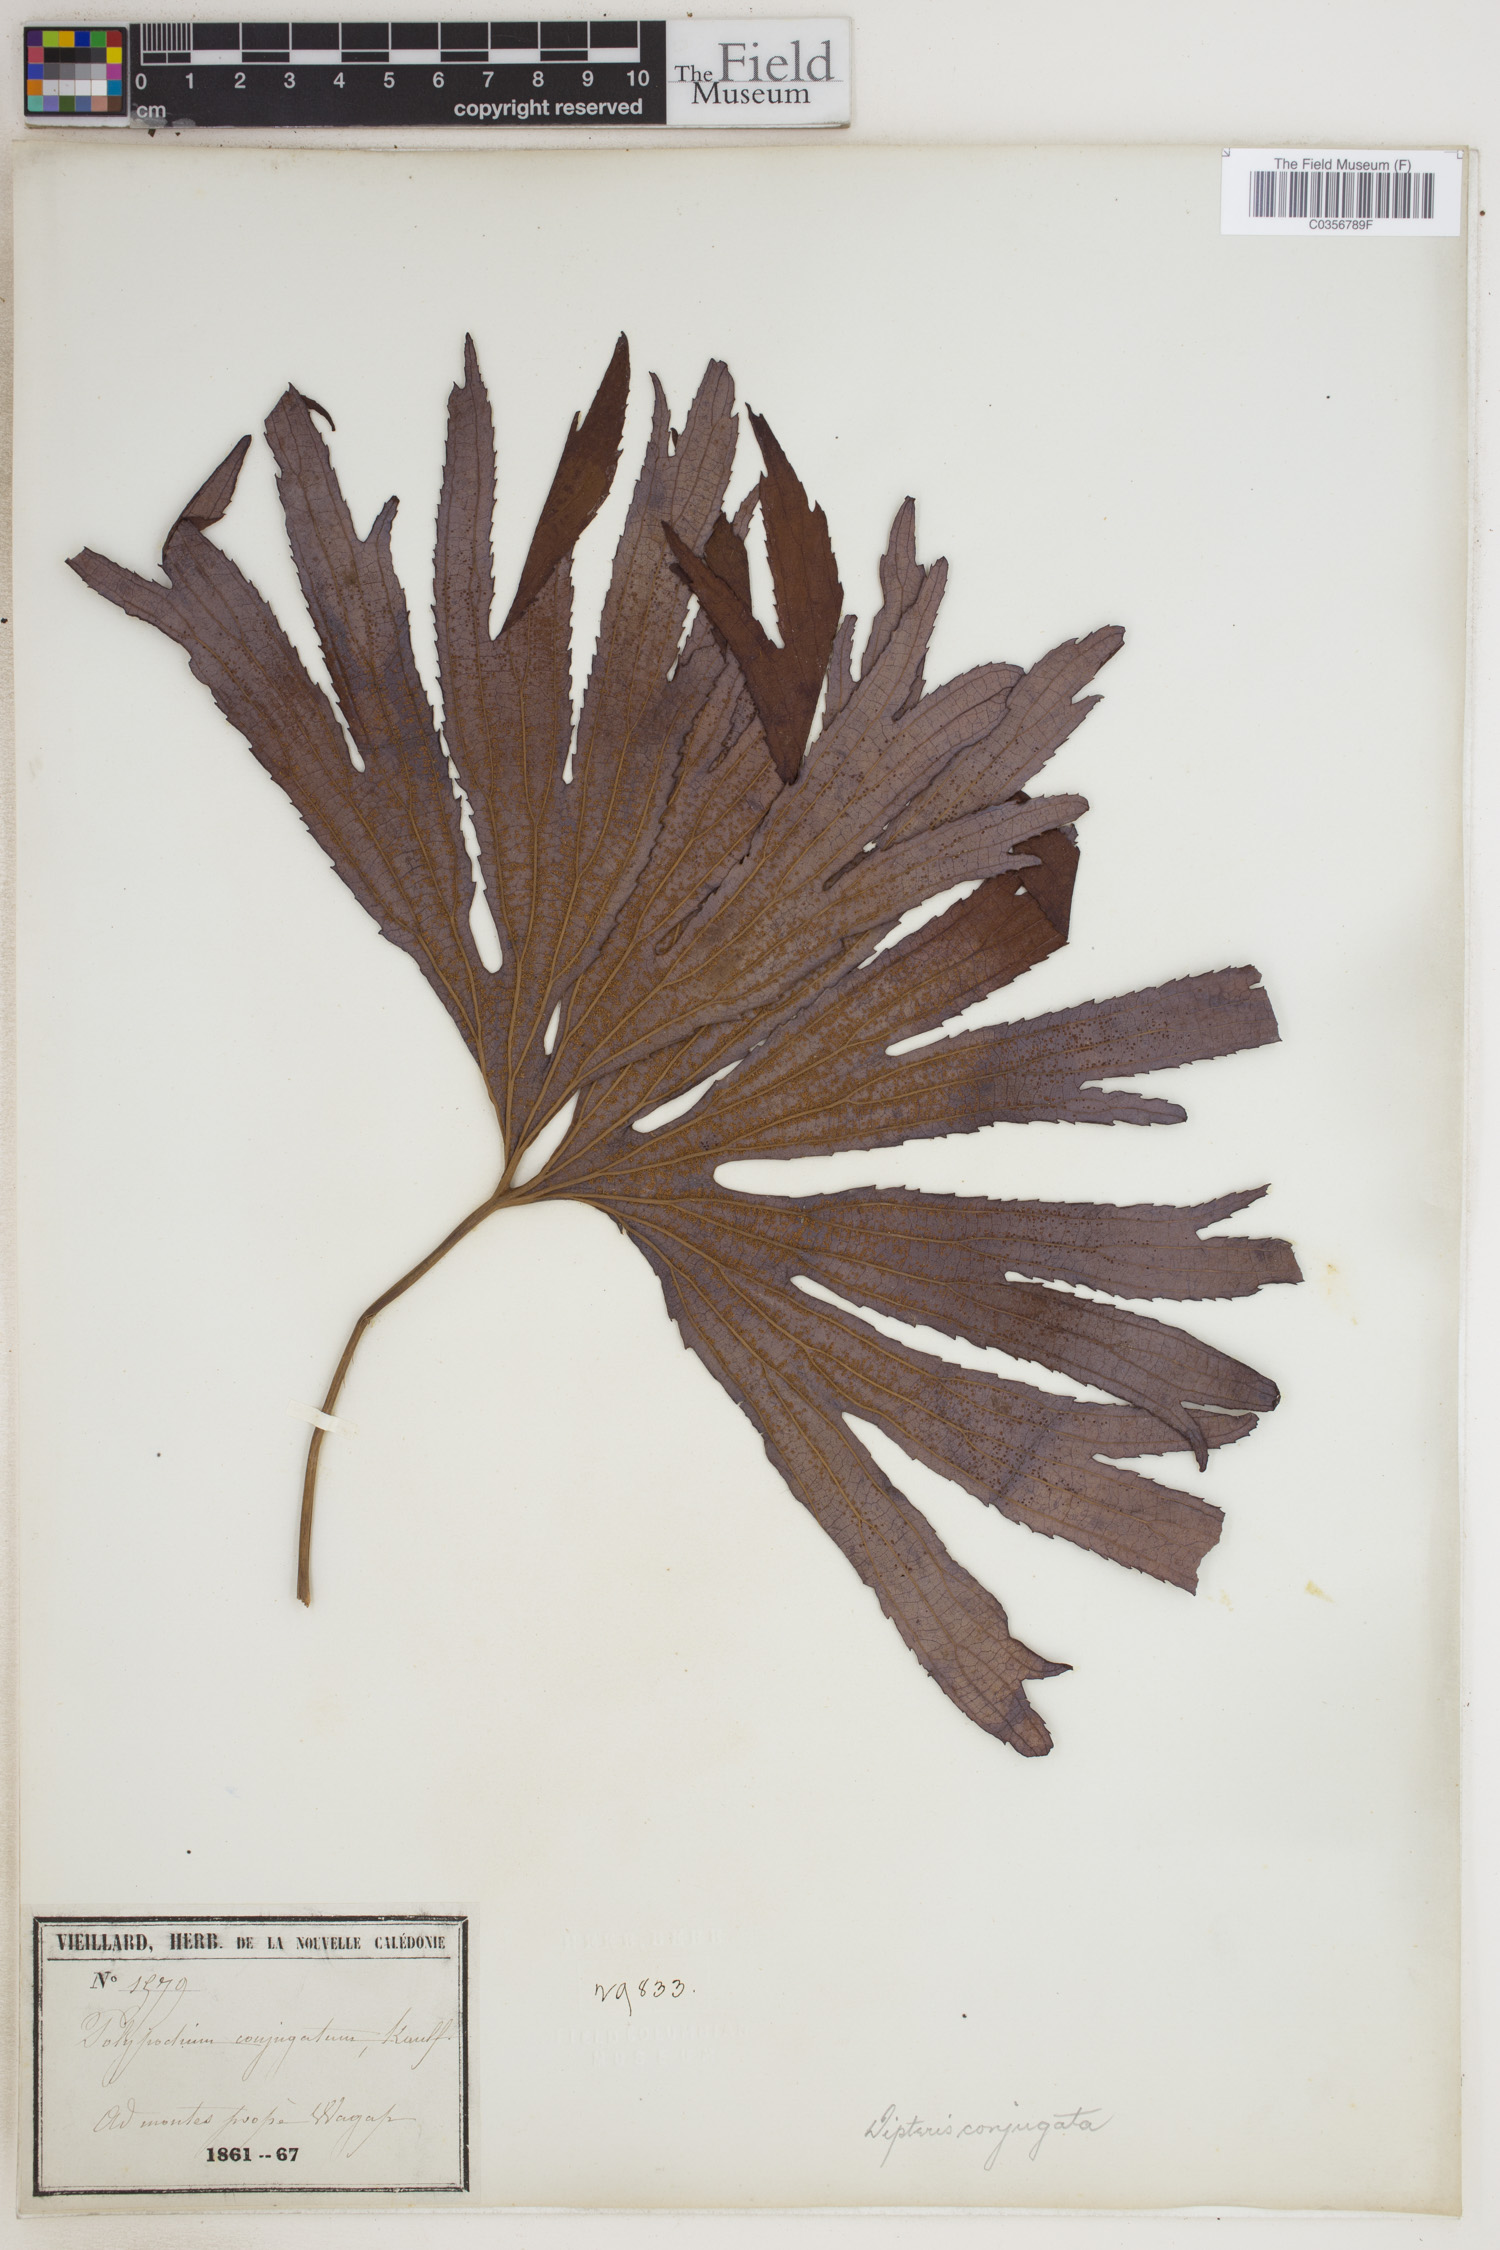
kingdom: Plantae
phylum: Tracheophyta
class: Polypodiopsida
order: Gleicheniales
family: Dipteridaceae
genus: Dipteris
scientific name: Dipteris conjugata
